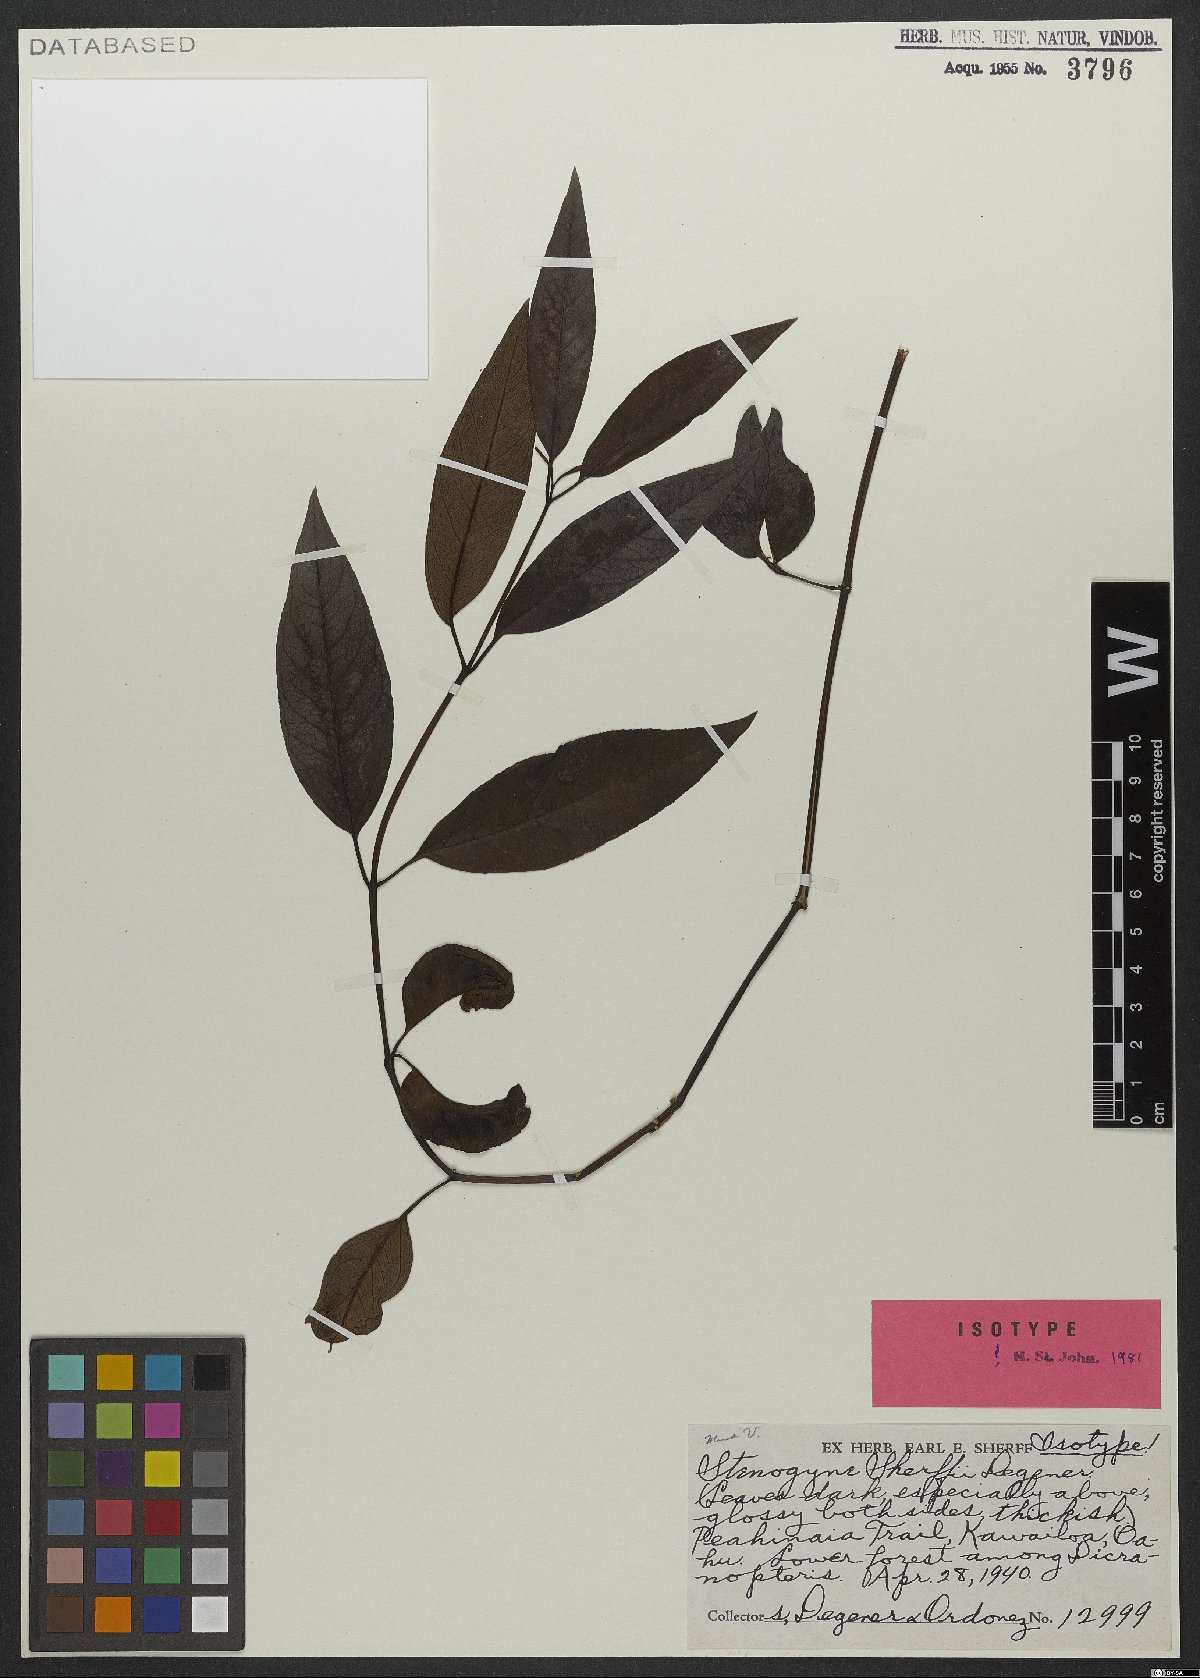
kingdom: Plantae
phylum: Tracheophyta
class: Magnoliopsida
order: Lamiales
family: Lamiaceae
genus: Stenogyne
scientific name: Stenogyne kaalae
